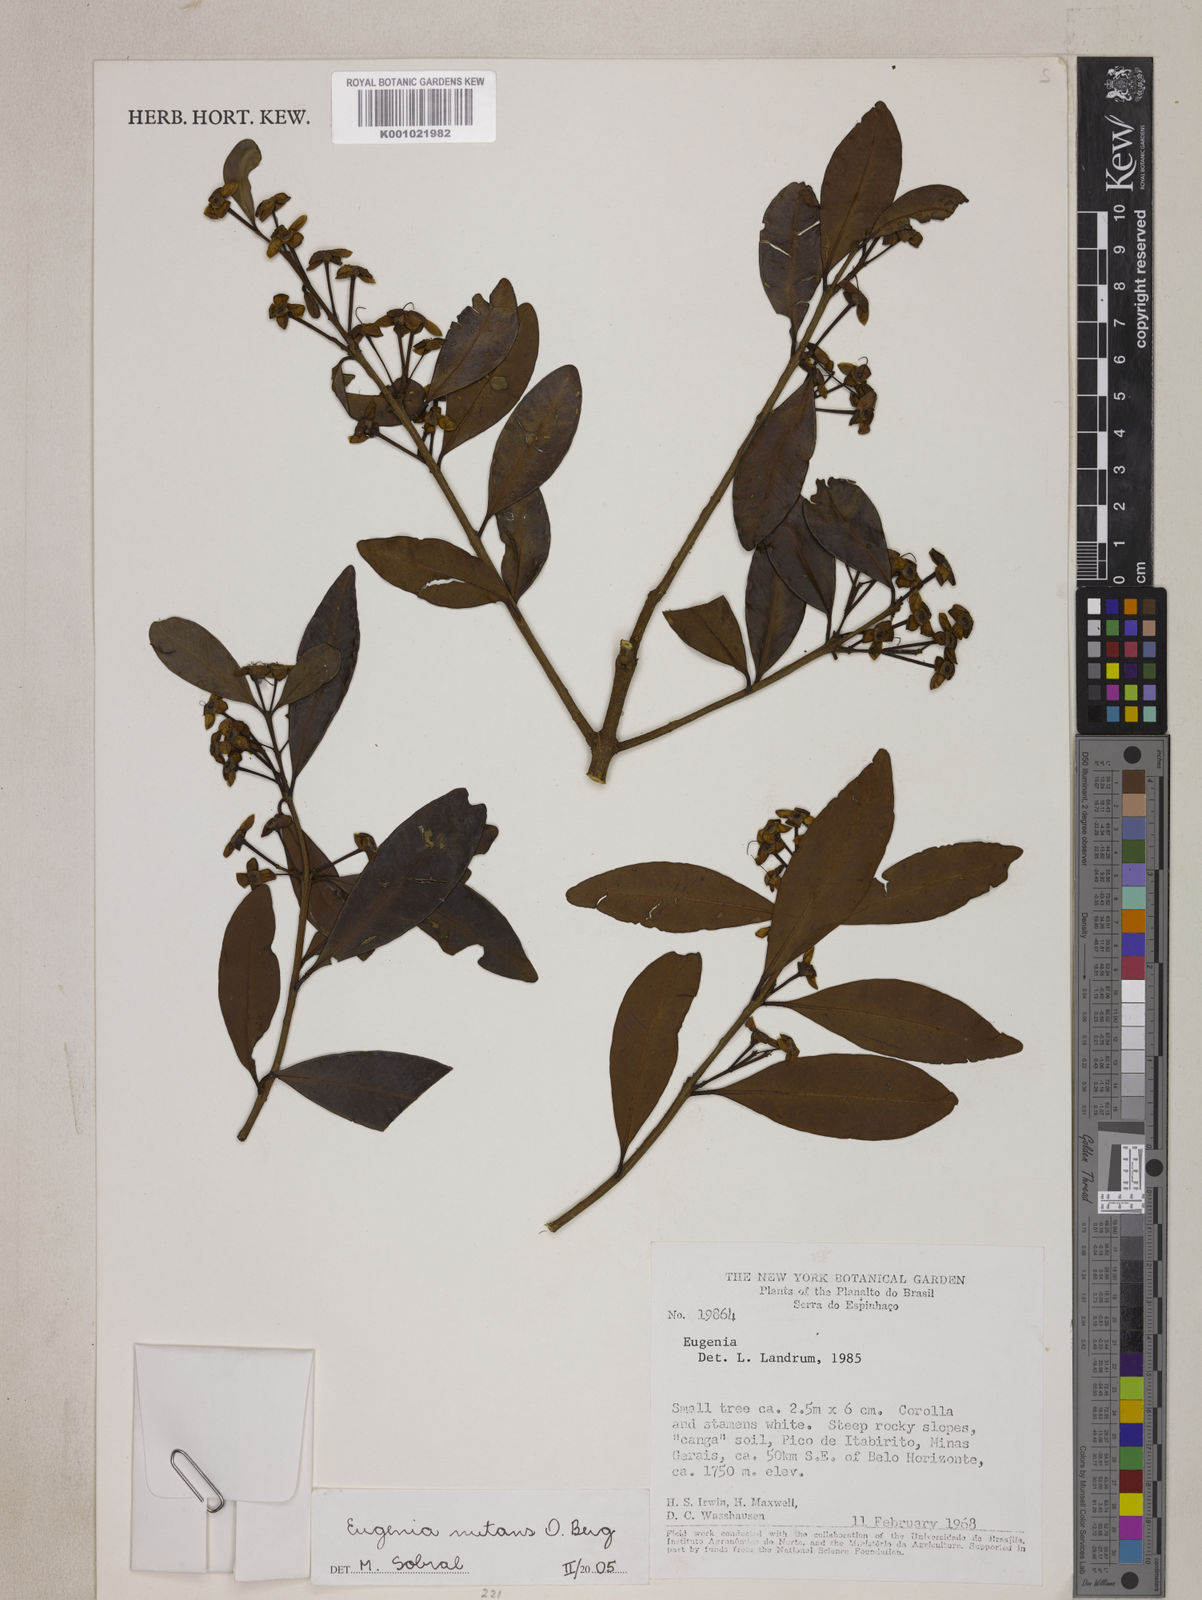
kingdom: Plantae
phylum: Tracheophyta
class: Magnoliopsida
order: Myrtales
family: Myrtaceae
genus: Eugenia
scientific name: Eugenia nutans
